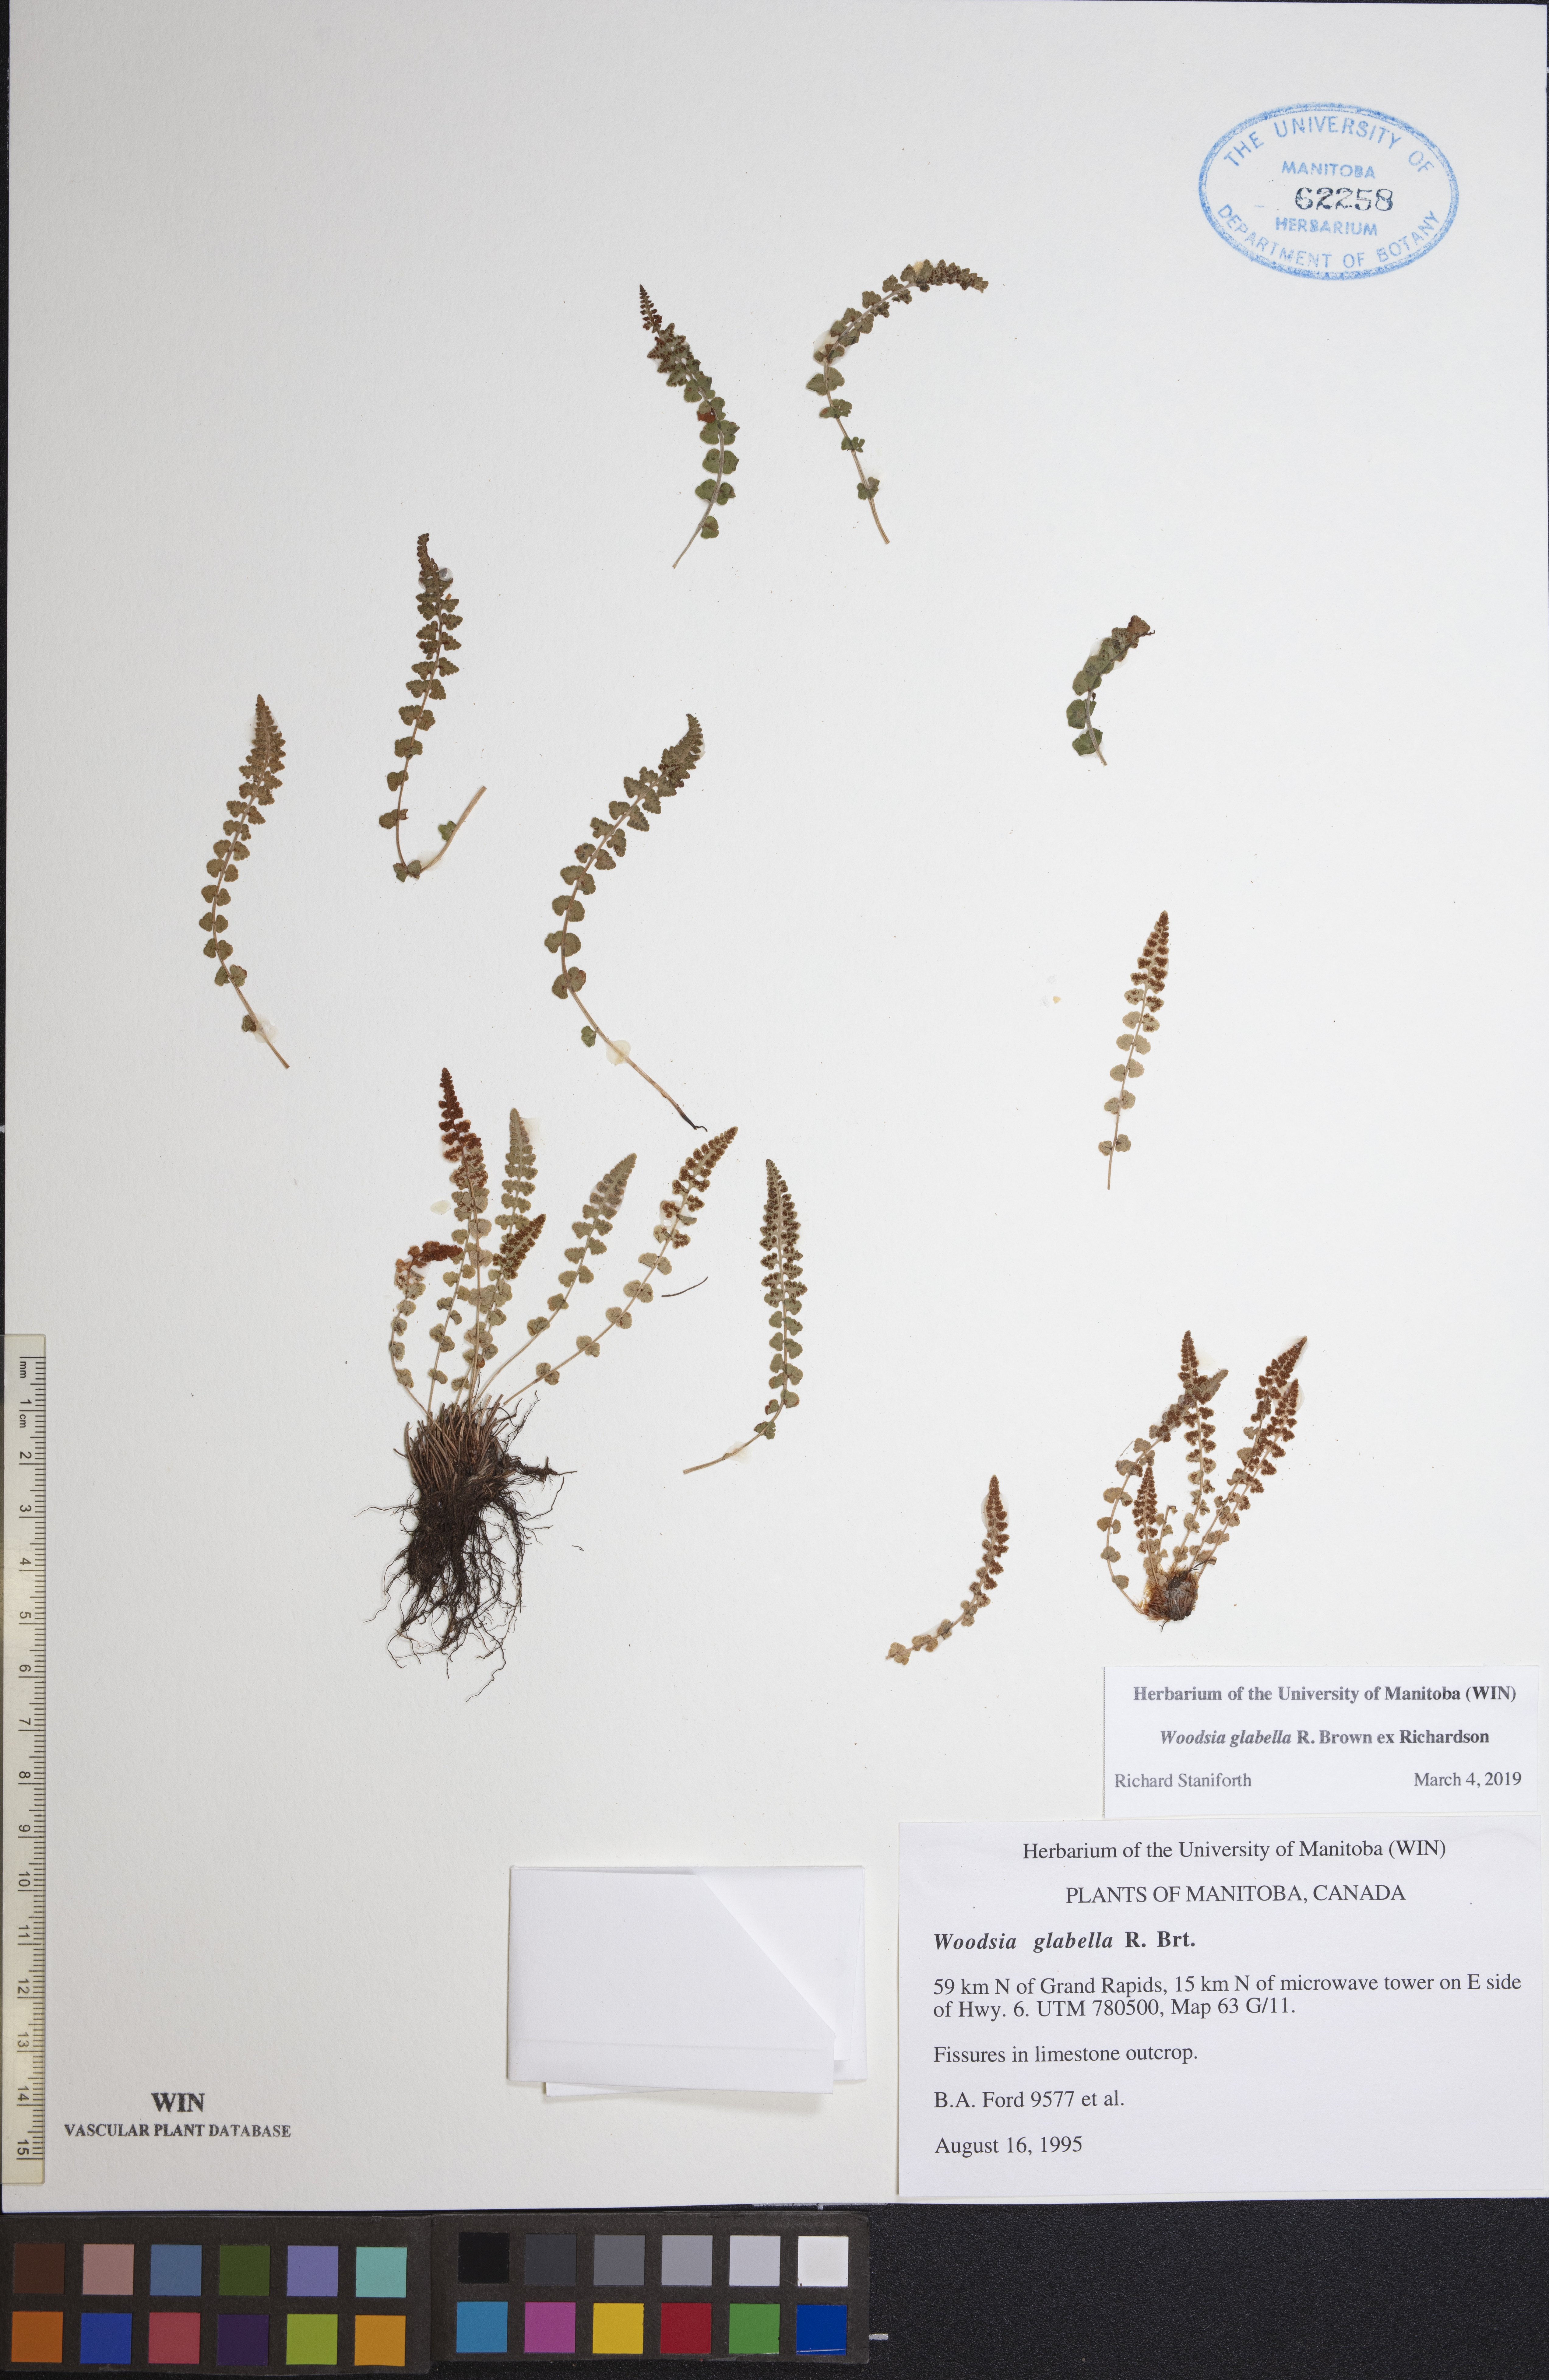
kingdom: Plantae
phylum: Tracheophyta
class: Polypodiopsida
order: Polypodiales
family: Woodsiaceae
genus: Woodsia
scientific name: Woodsia glabella
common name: Smooth woodsia
